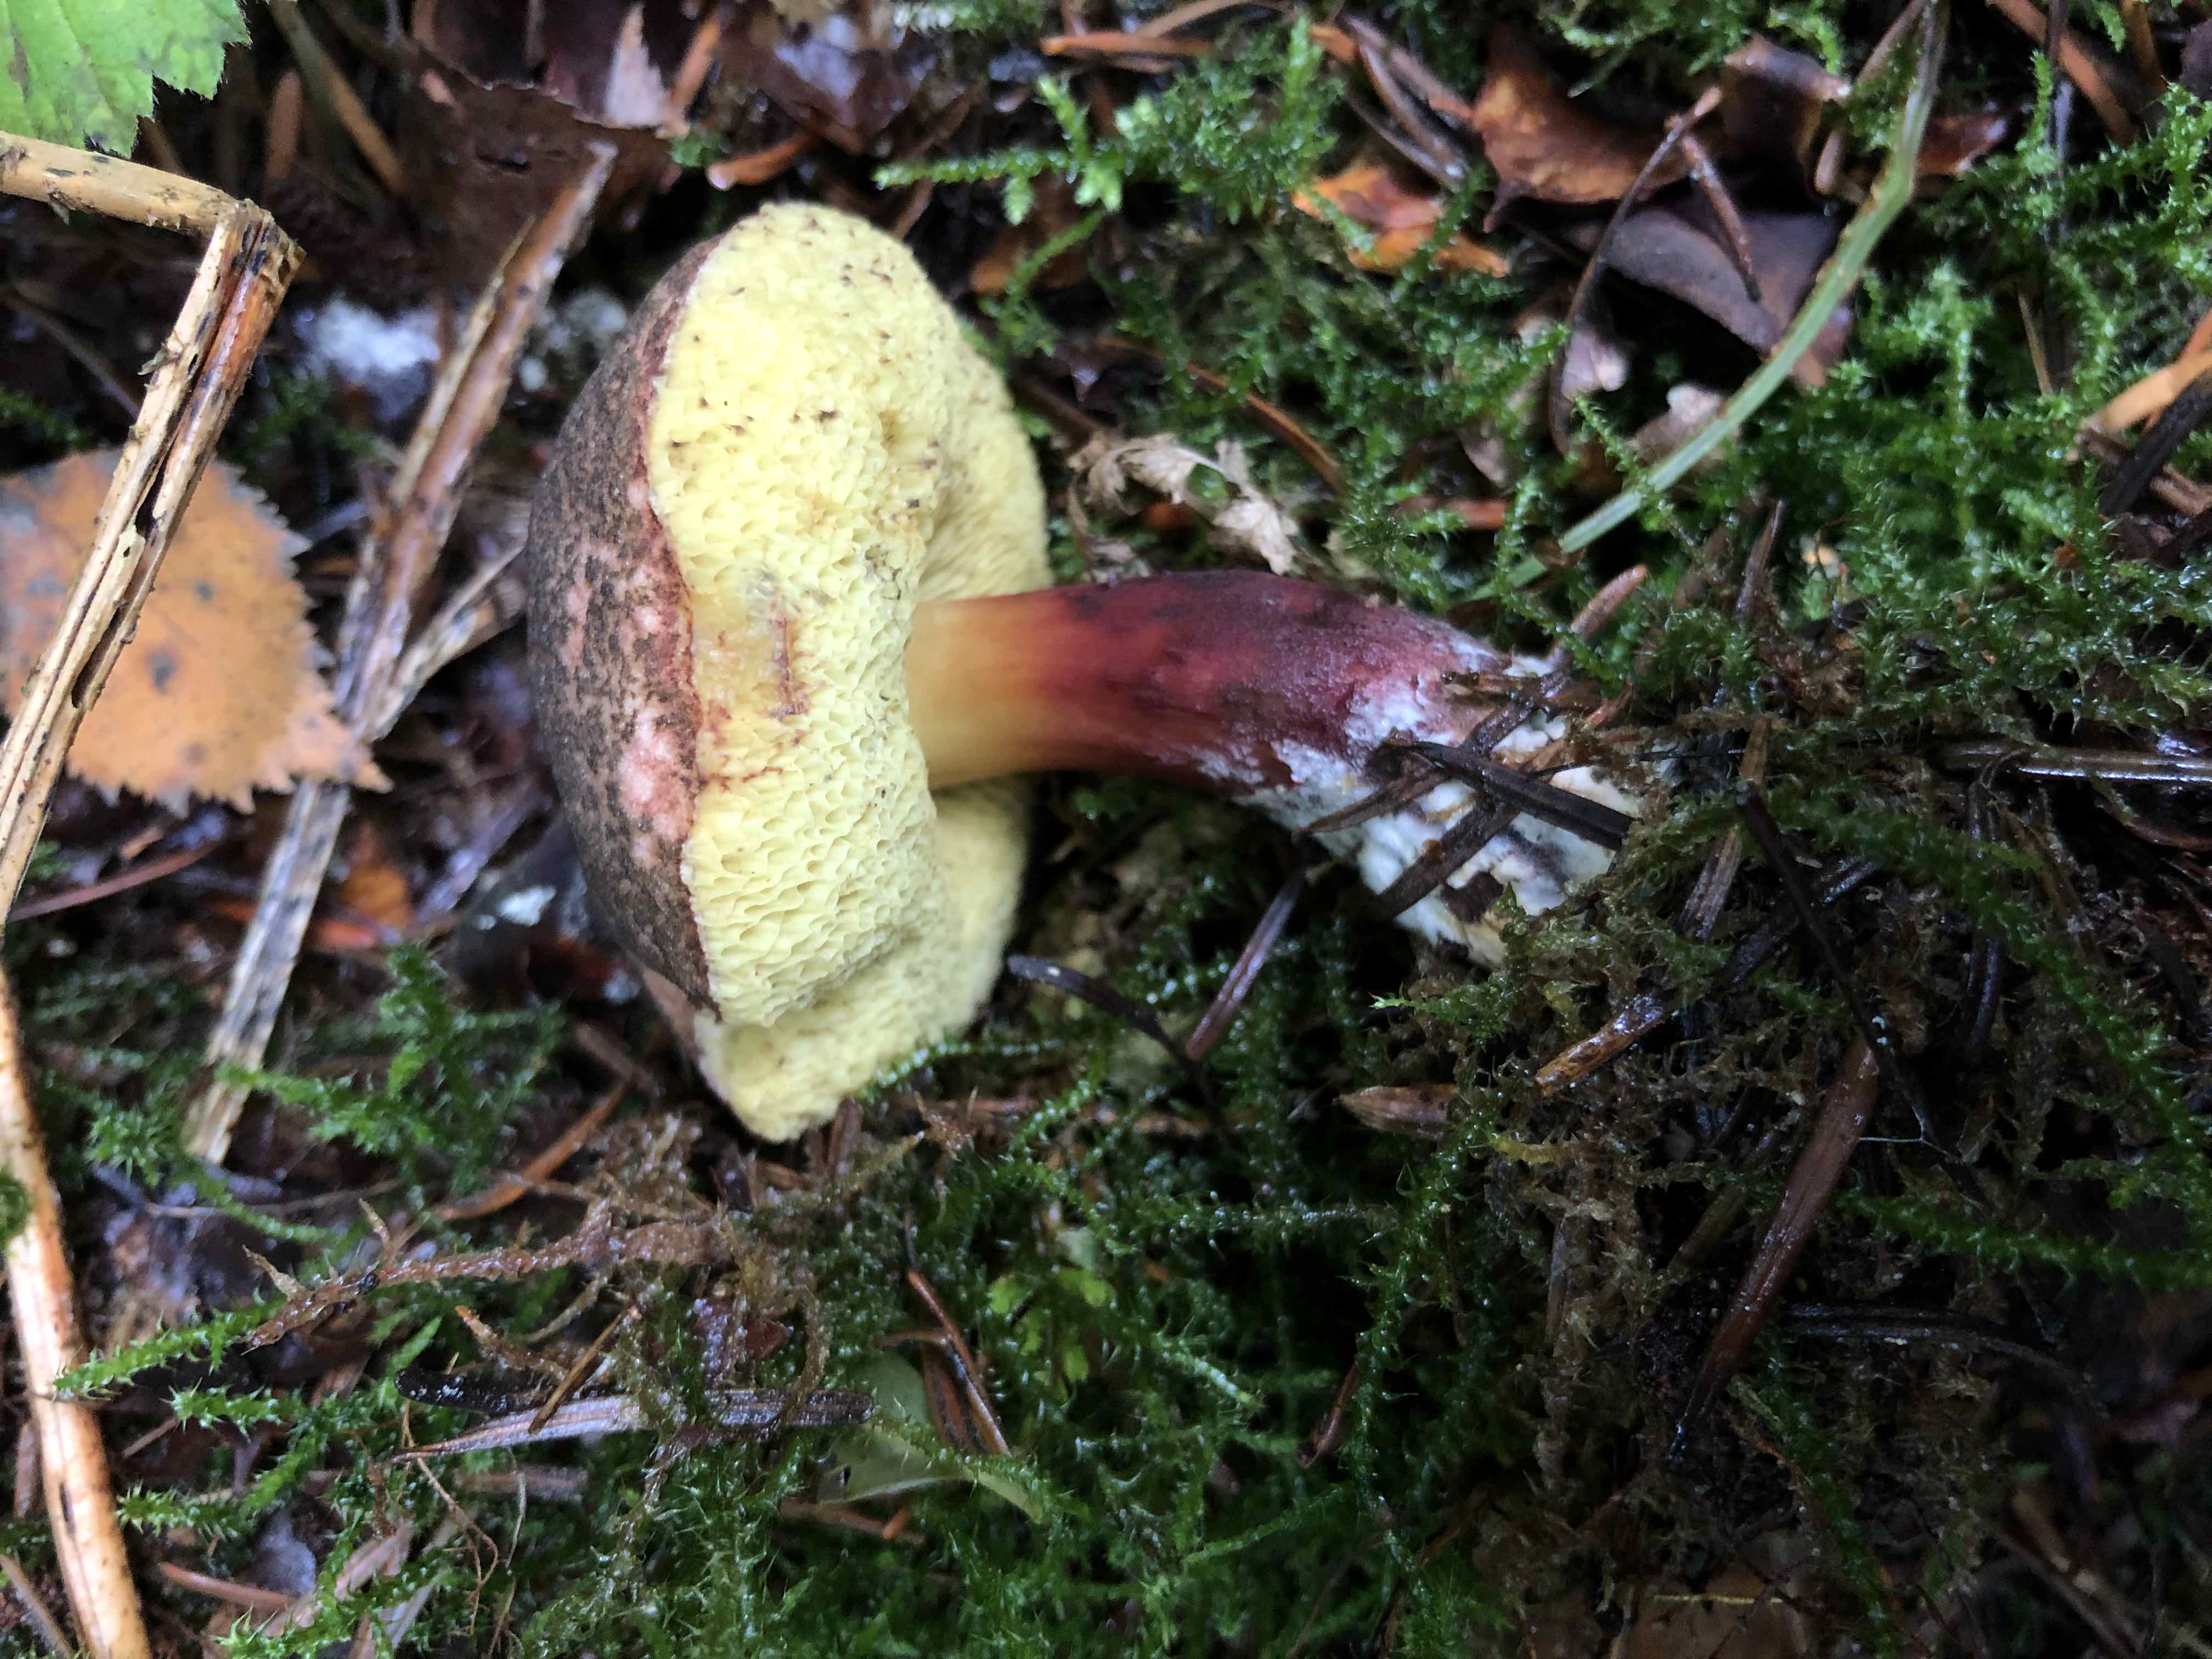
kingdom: Fungi
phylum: Basidiomycota
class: Agaricomycetes
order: Boletales
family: Boletaceae
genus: Xerocomellus
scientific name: Xerocomellus
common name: dværgrørhat
